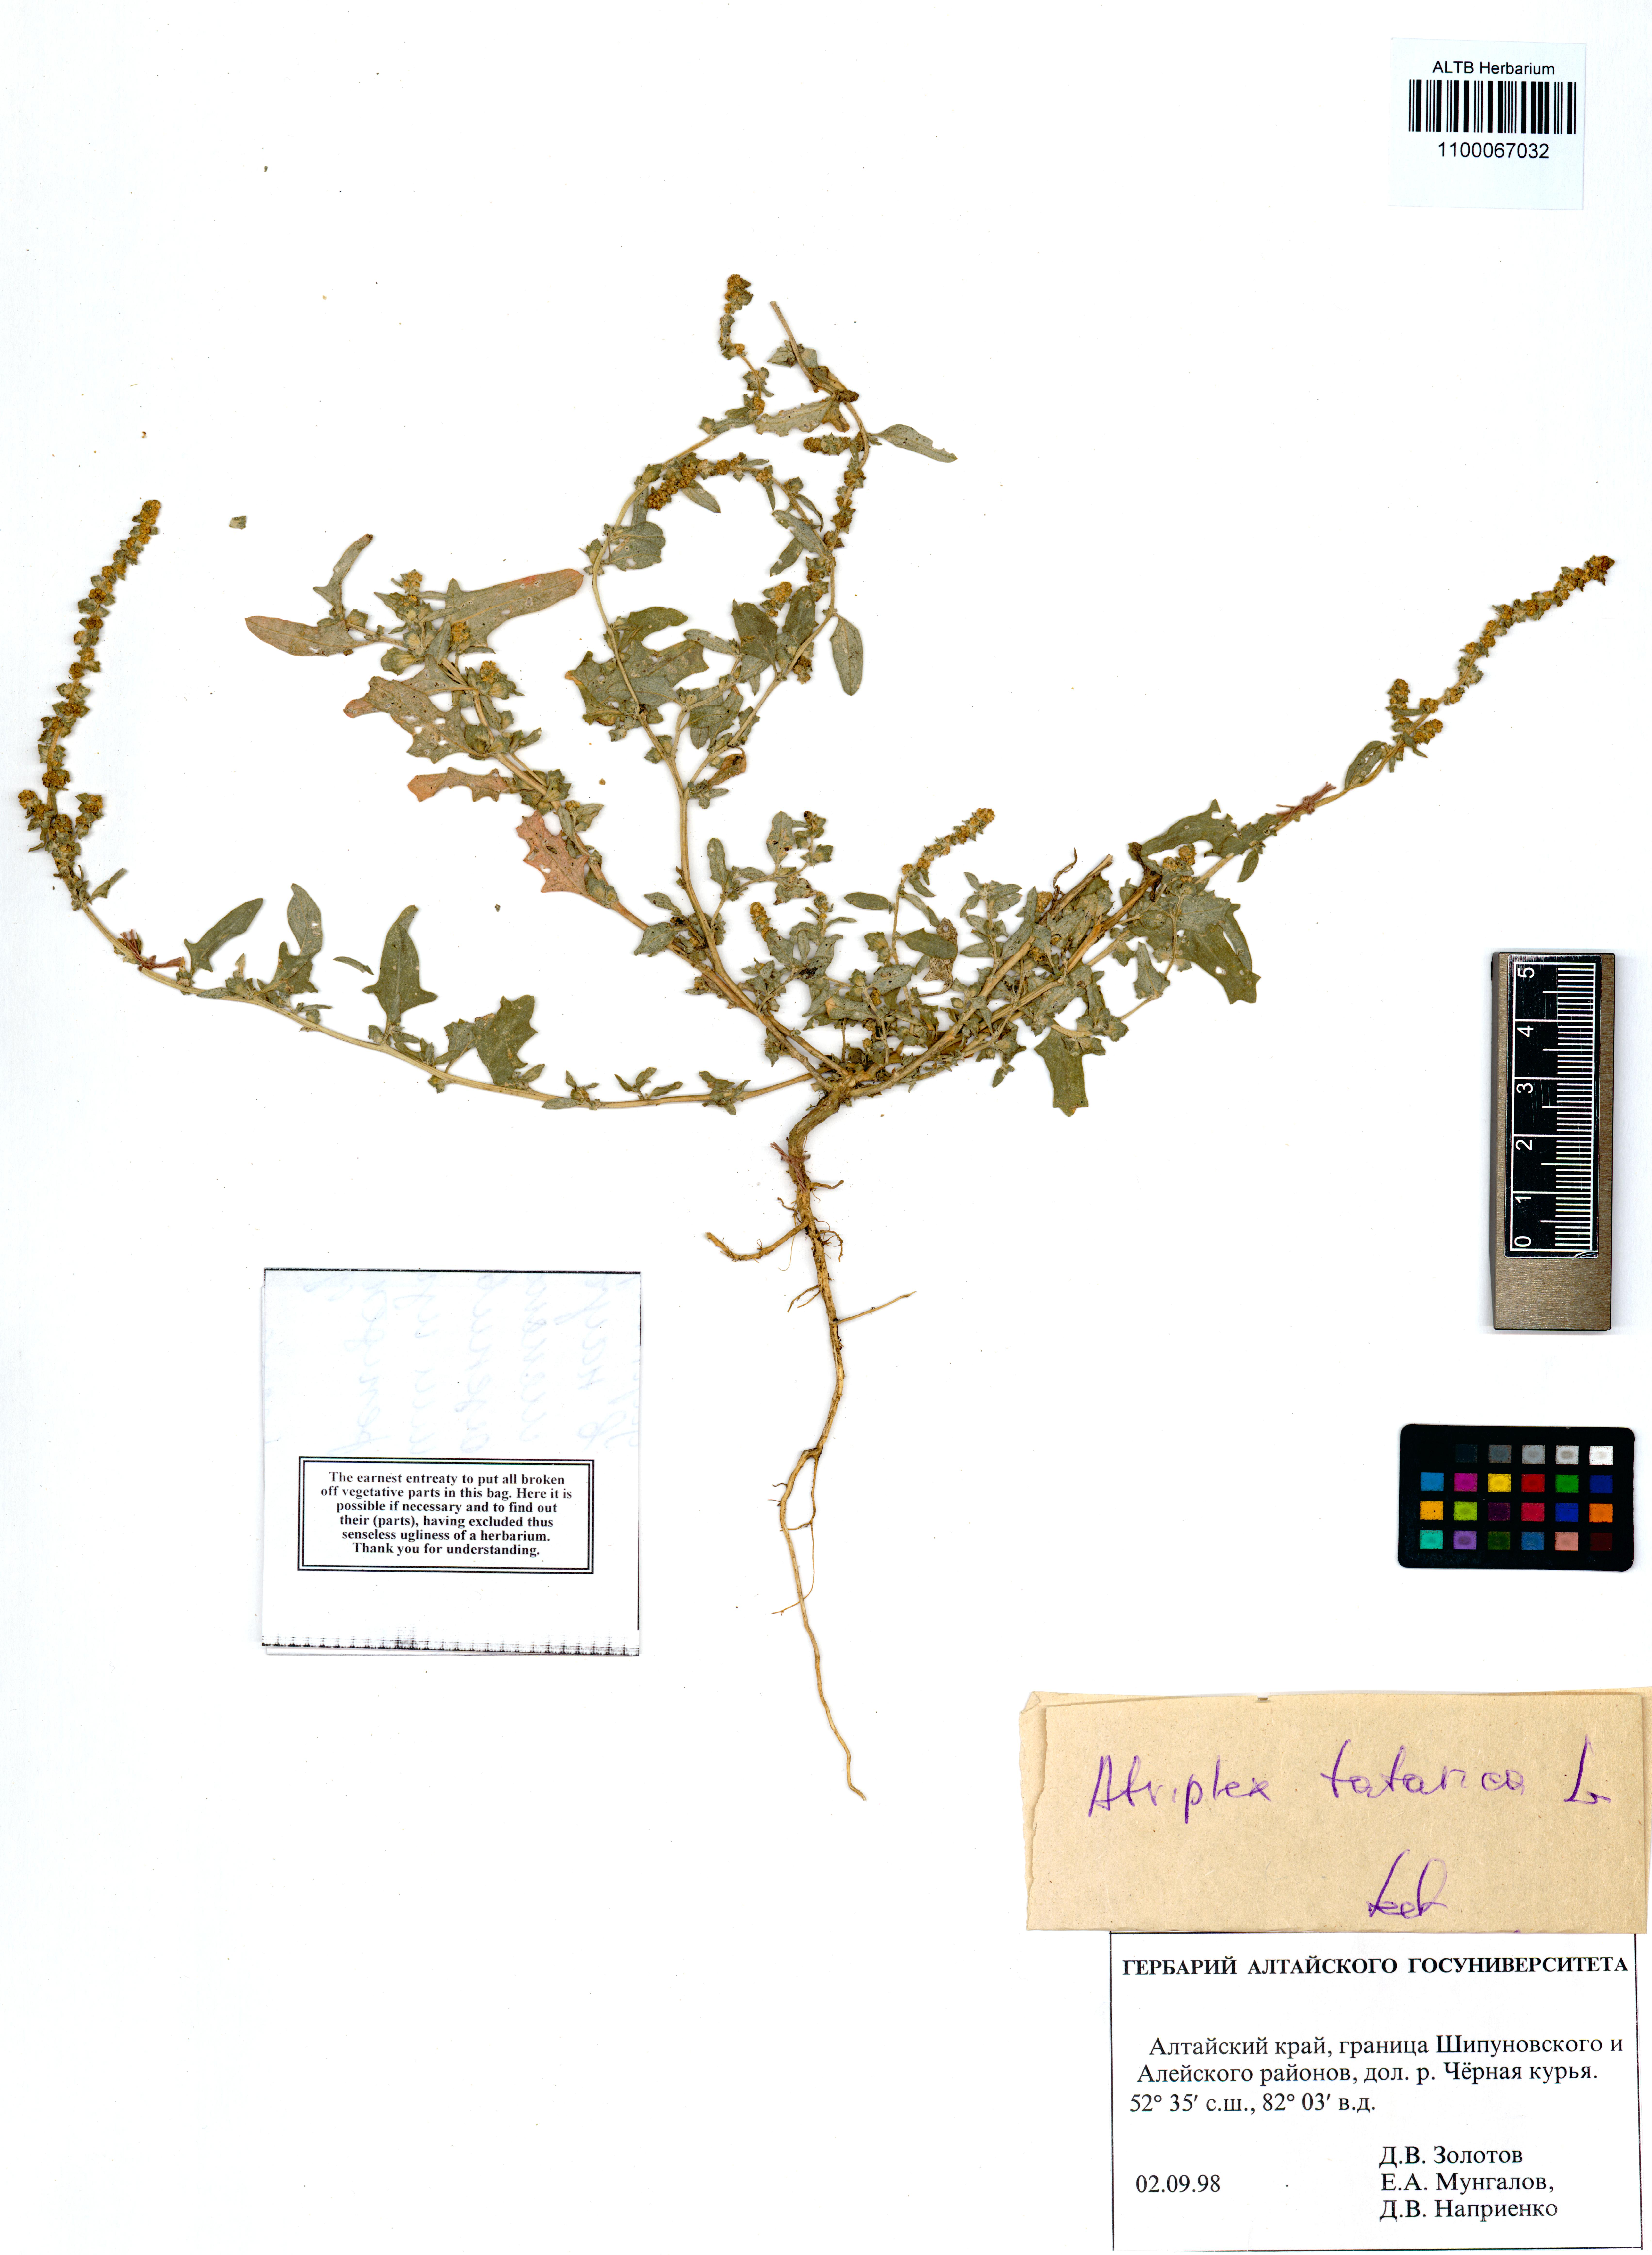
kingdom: Plantae
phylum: Tracheophyta
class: Magnoliopsida
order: Caryophyllales
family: Amaranthaceae
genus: Atriplex
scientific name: Atriplex tatarica
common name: Tatarian orache
